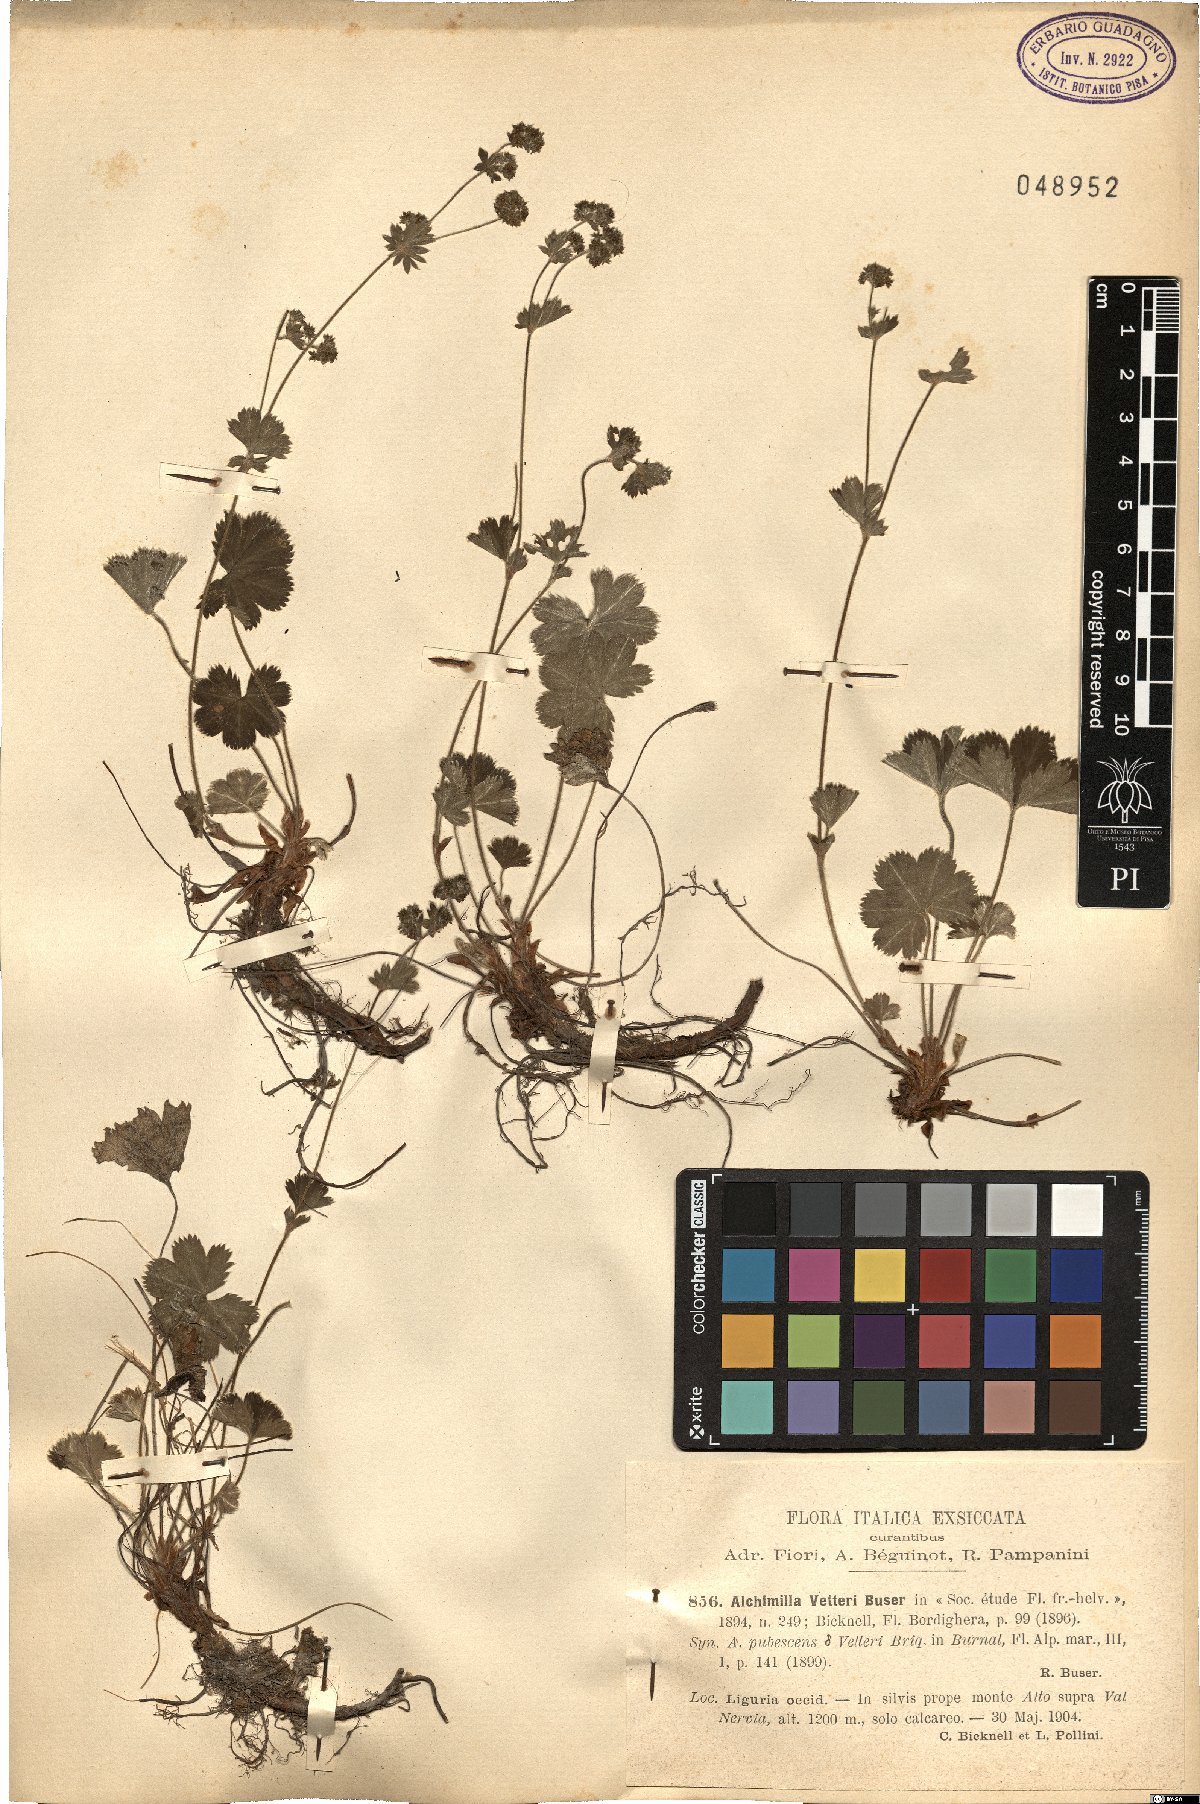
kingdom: Plantae
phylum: Tracheophyta
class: Magnoliopsida
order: Rosales
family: Rosaceae
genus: Alchemilla
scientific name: Alchemilla vetteri
